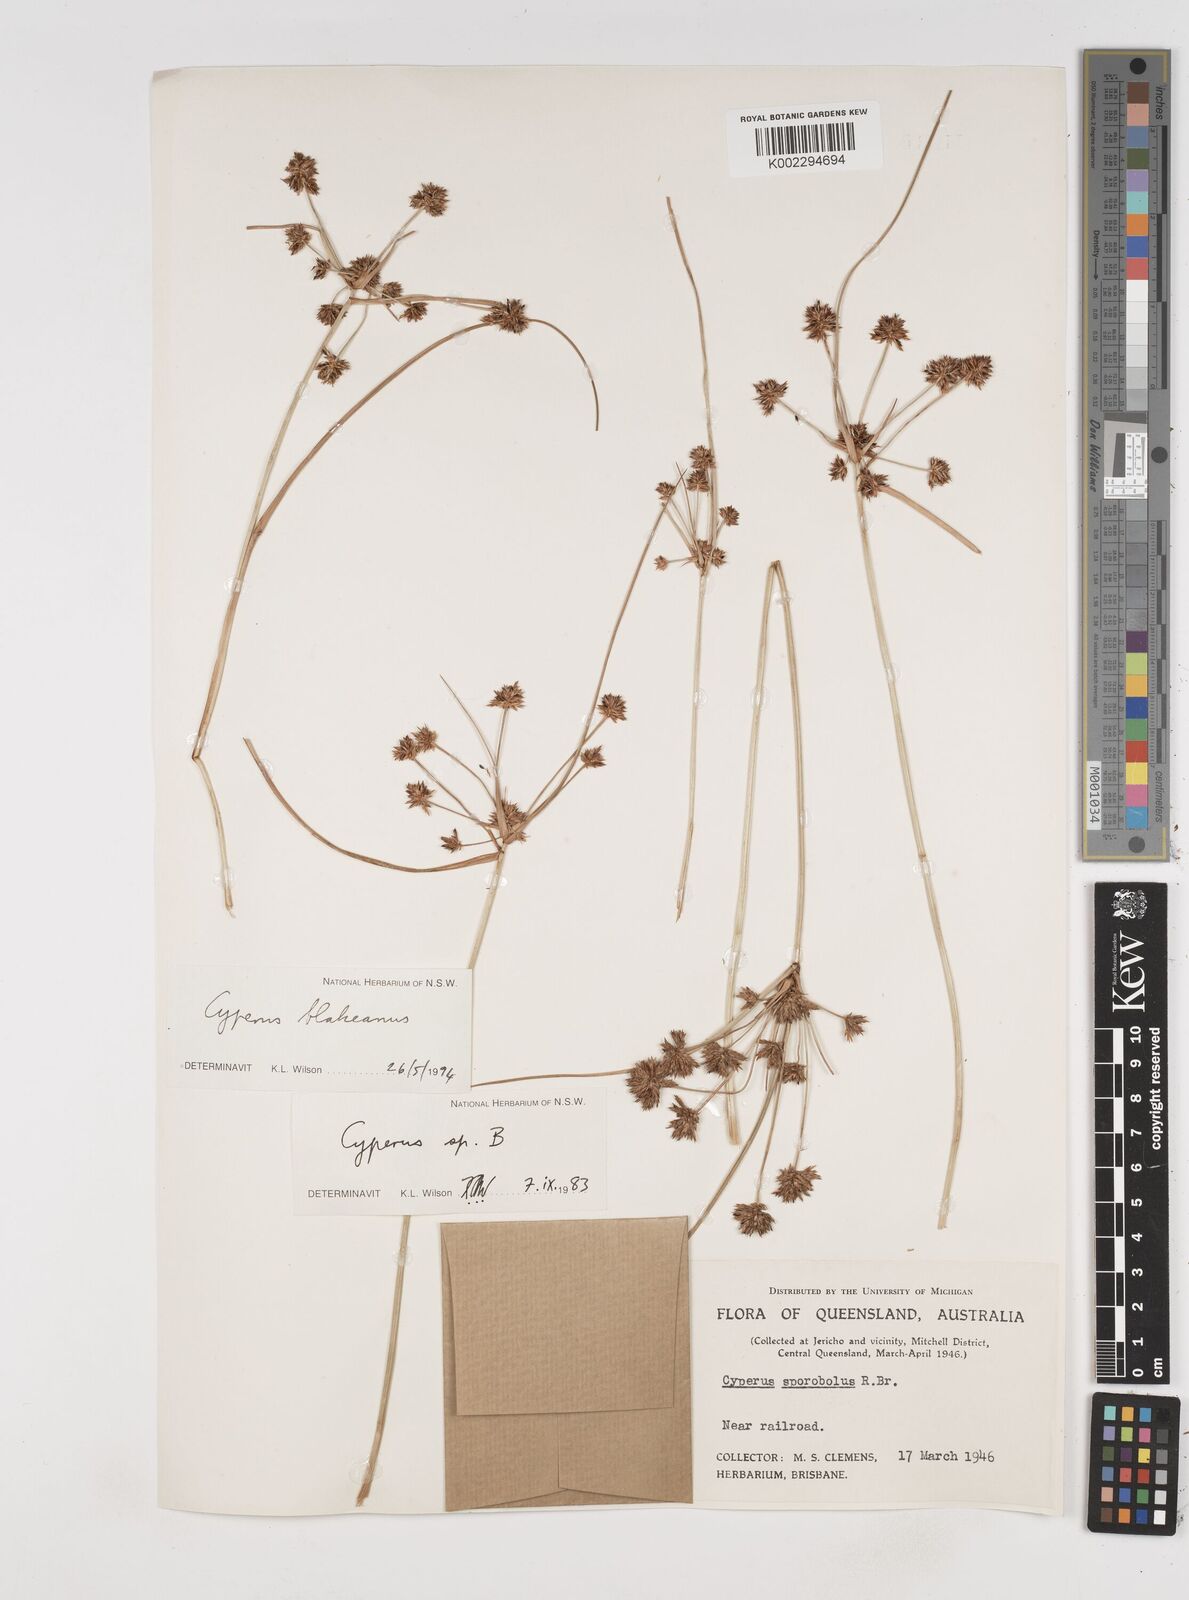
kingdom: Plantae
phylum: Tracheophyta
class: Liliopsida
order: Poales
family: Cyperaceae
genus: Cyperus
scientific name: Cyperus blakeanus
